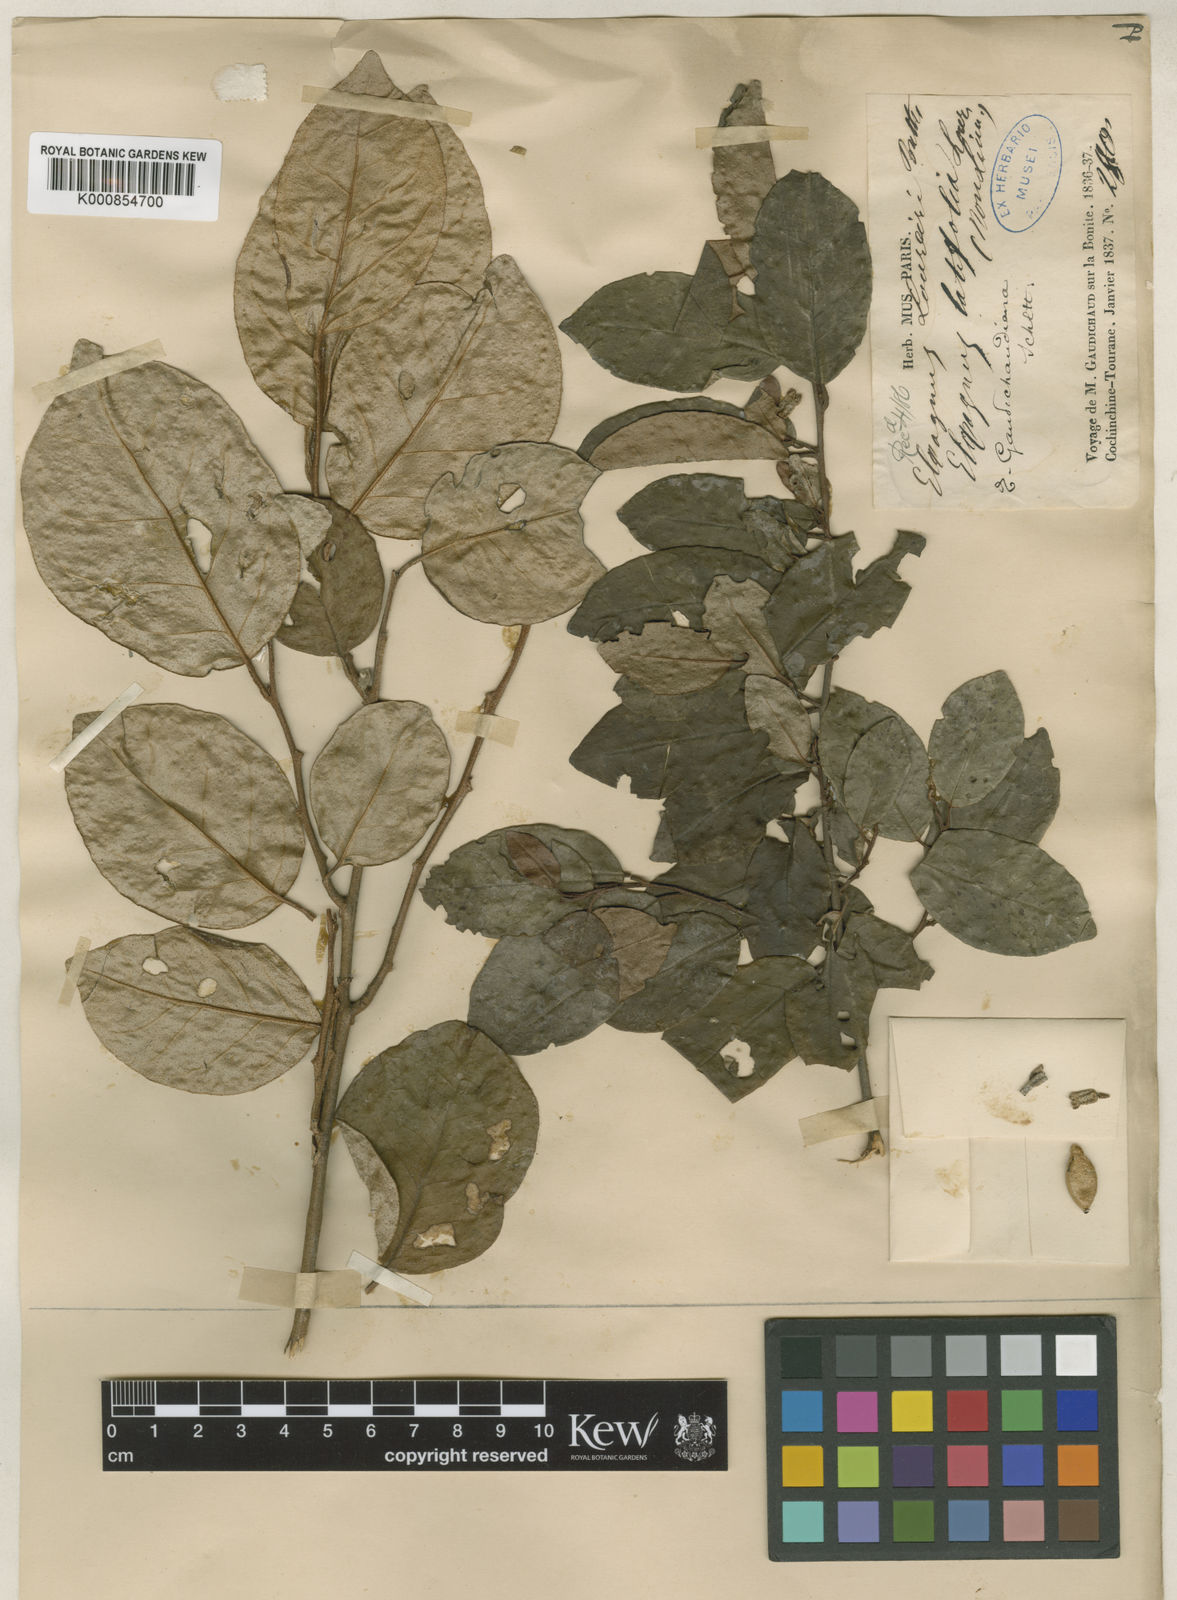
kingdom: Plantae
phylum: Tracheophyta
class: Magnoliopsida
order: Rosales
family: Elaeagnaceae
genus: Elaeagnus
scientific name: Elaeagnus conferta
